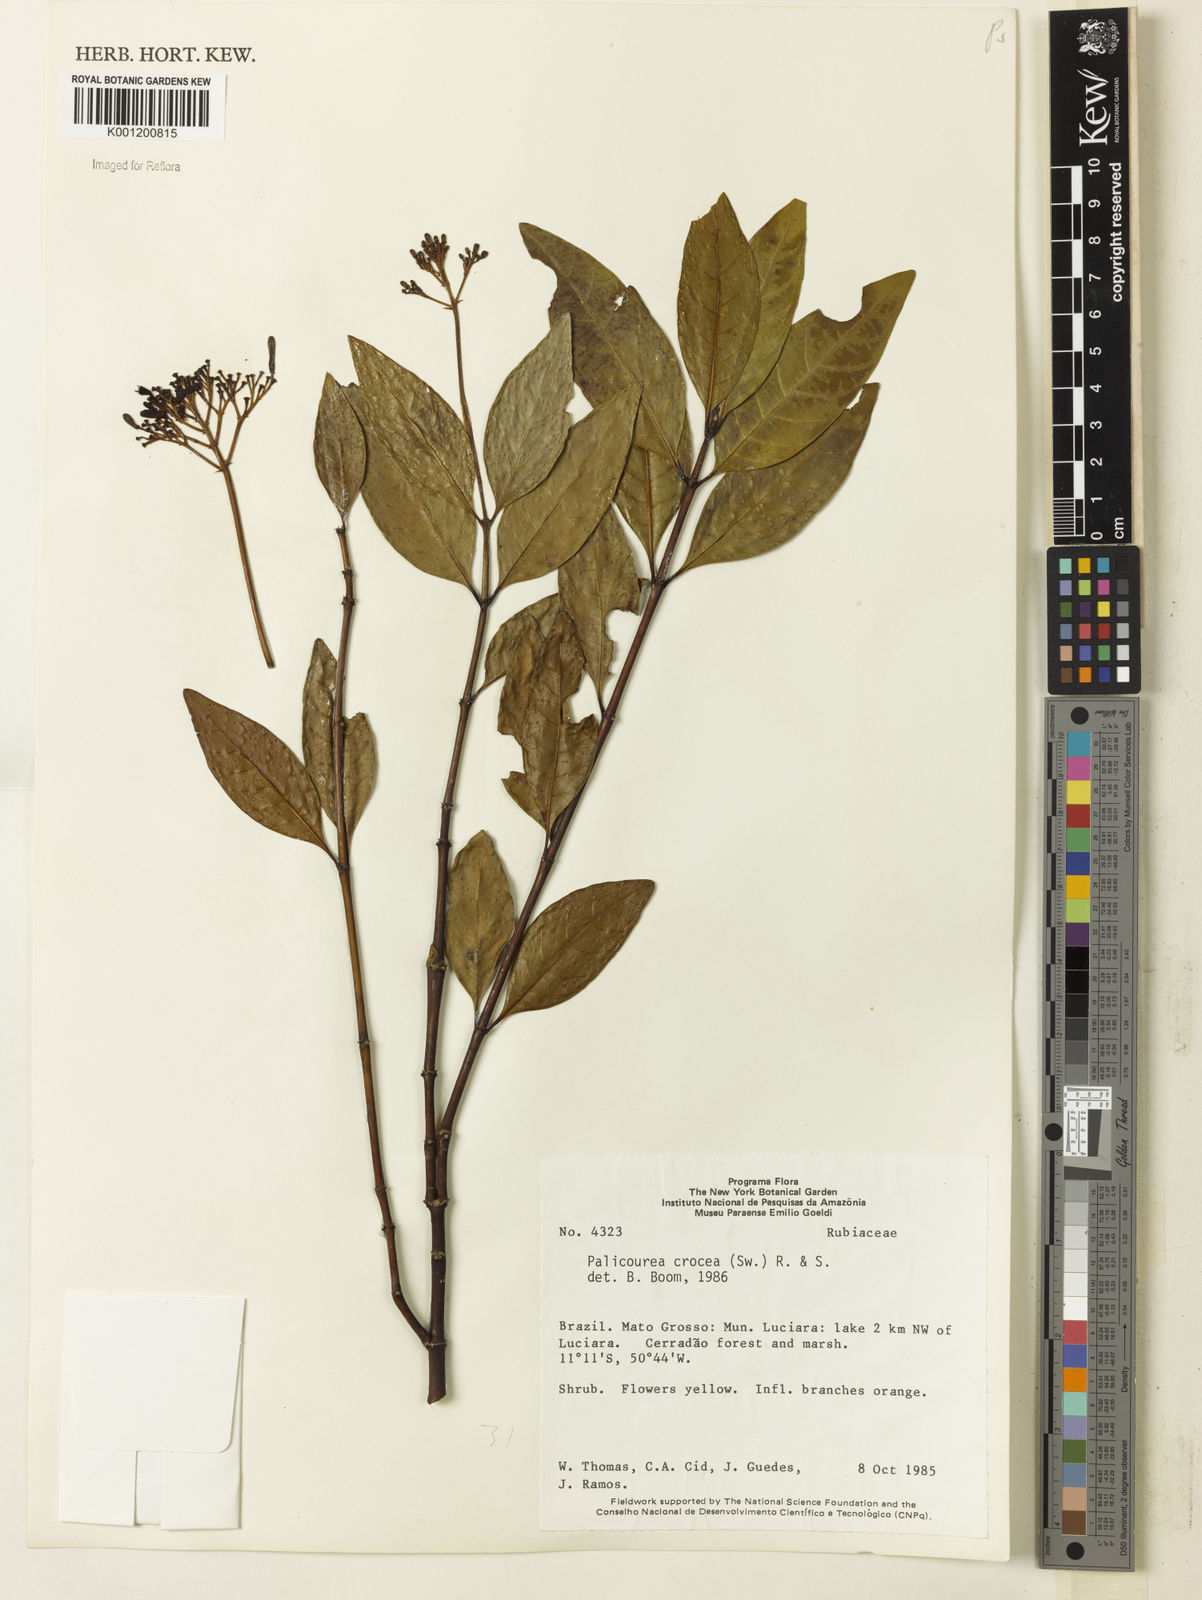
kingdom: Plantae
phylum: Tracheophyta
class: Magnoliopsida
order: Gentianales
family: Rubiaceae
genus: Palicourea
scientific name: Palicourea crocea
